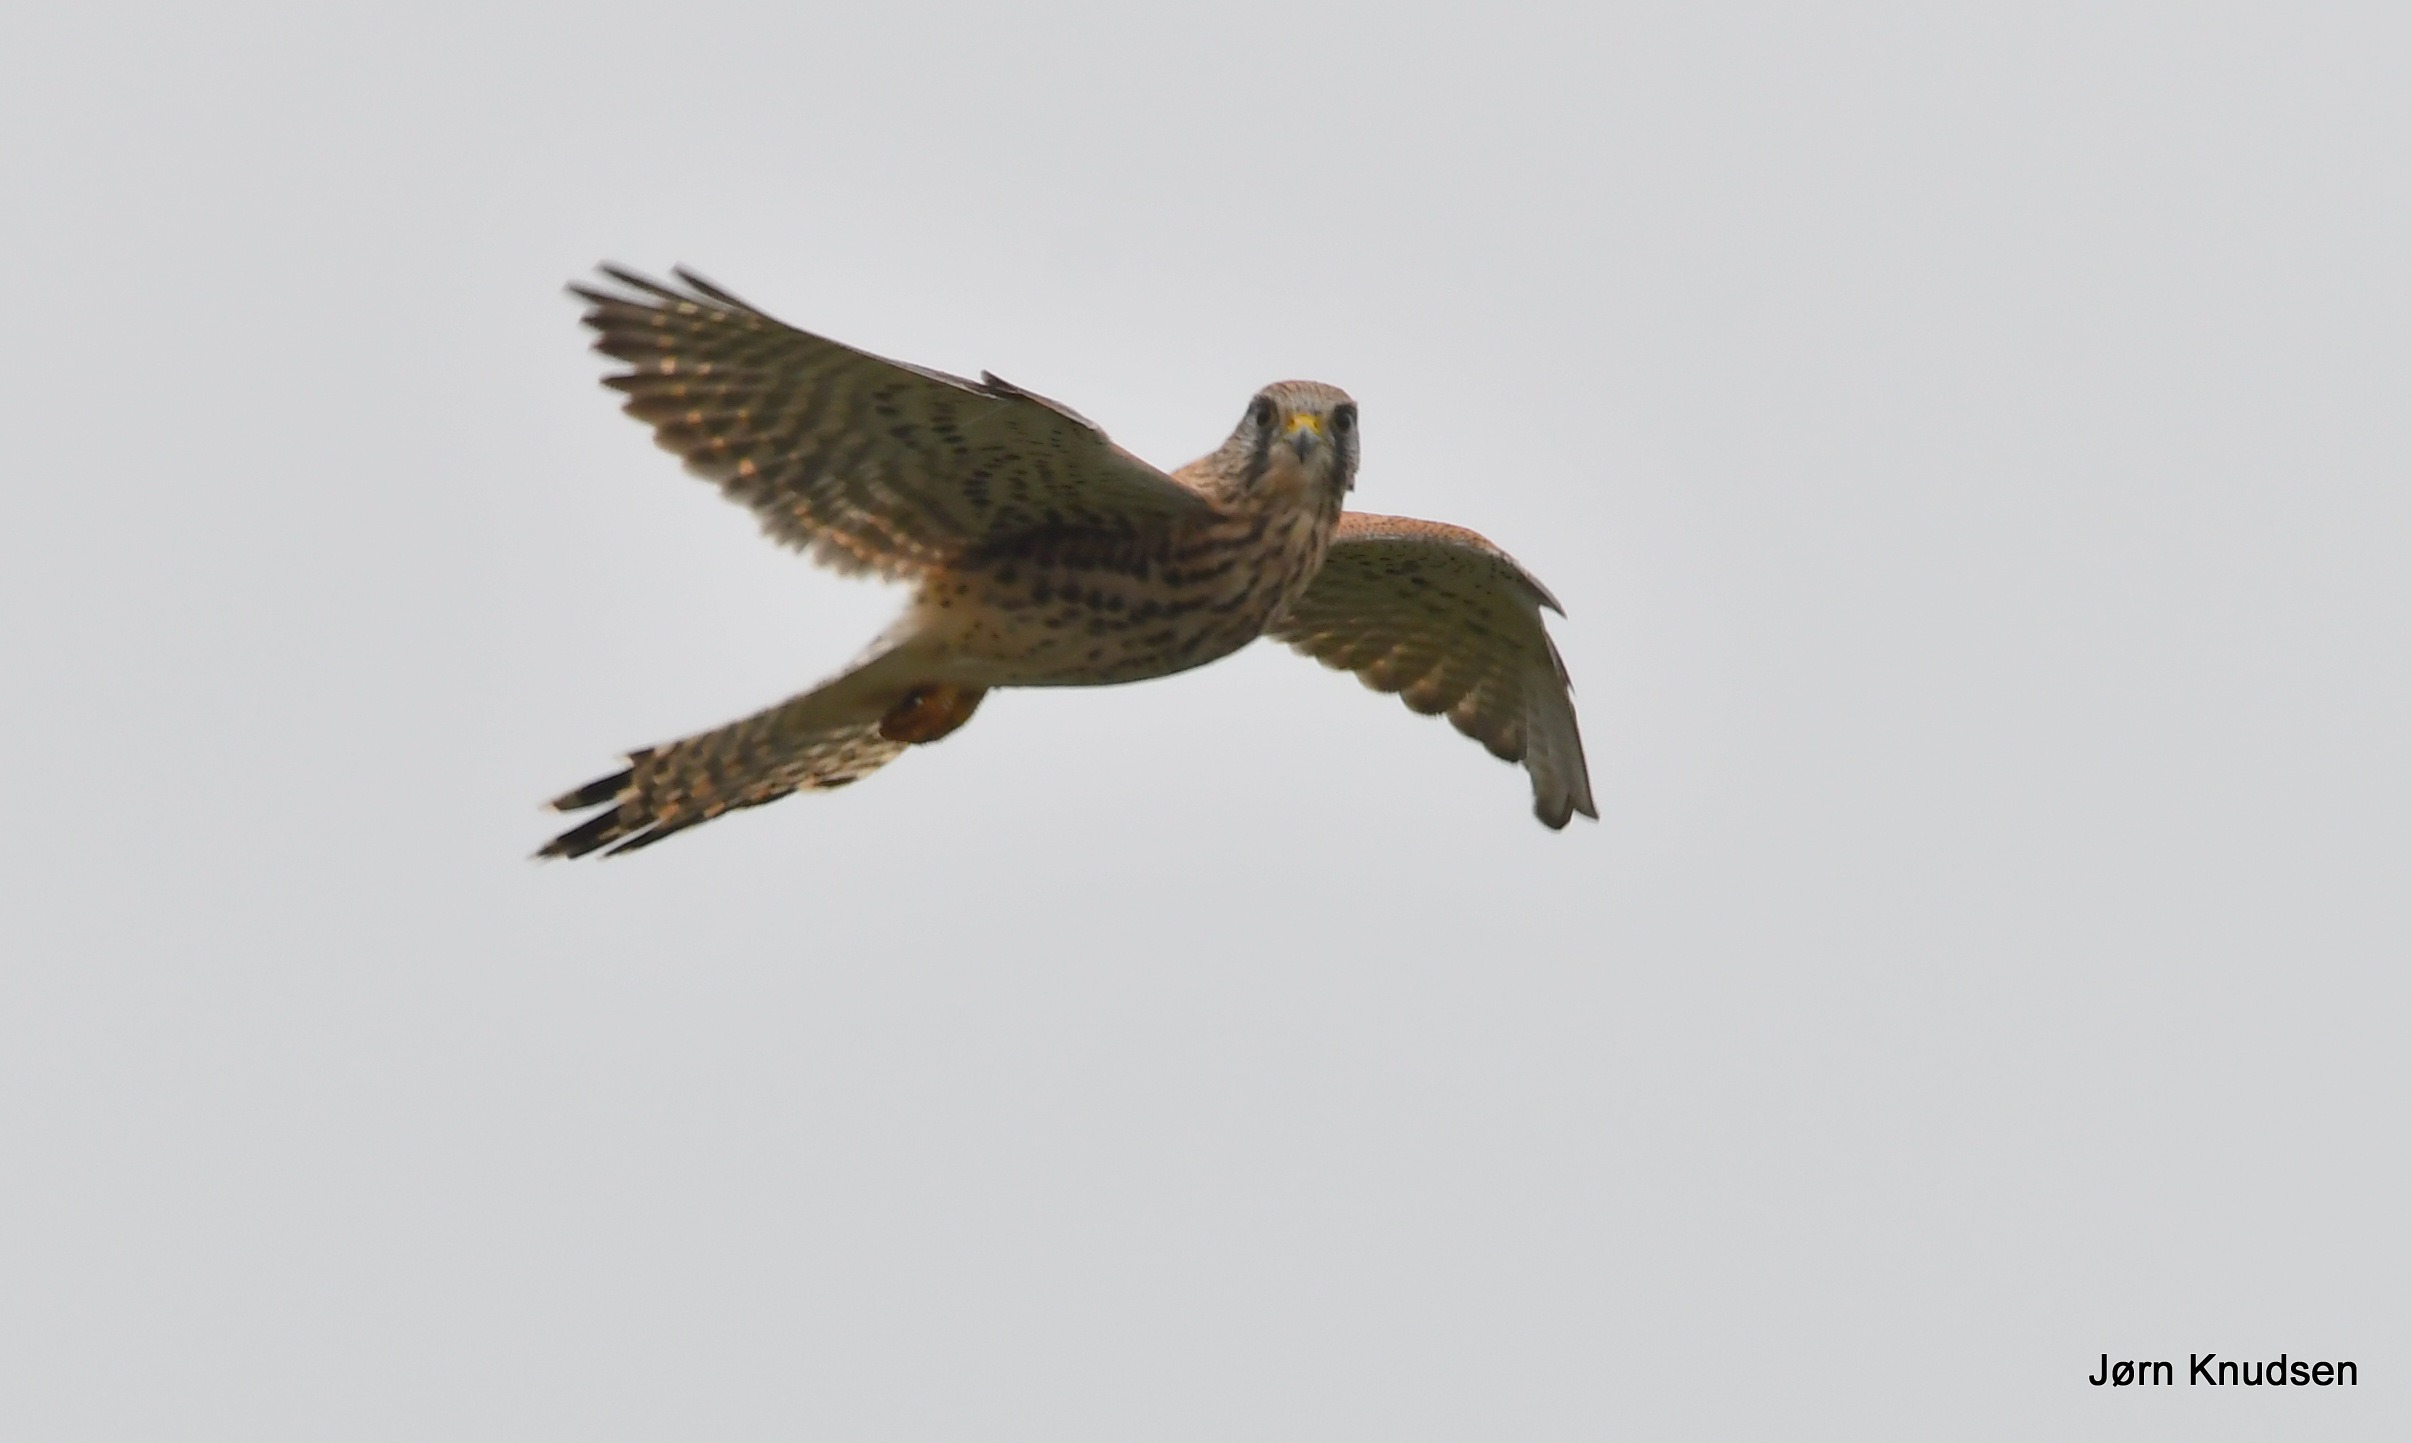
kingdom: Animalia
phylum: Chordata
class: Aves
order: Falconiformes
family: Falconidae
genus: Falco
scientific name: Falco tinnunculus
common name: Tårnfalk
